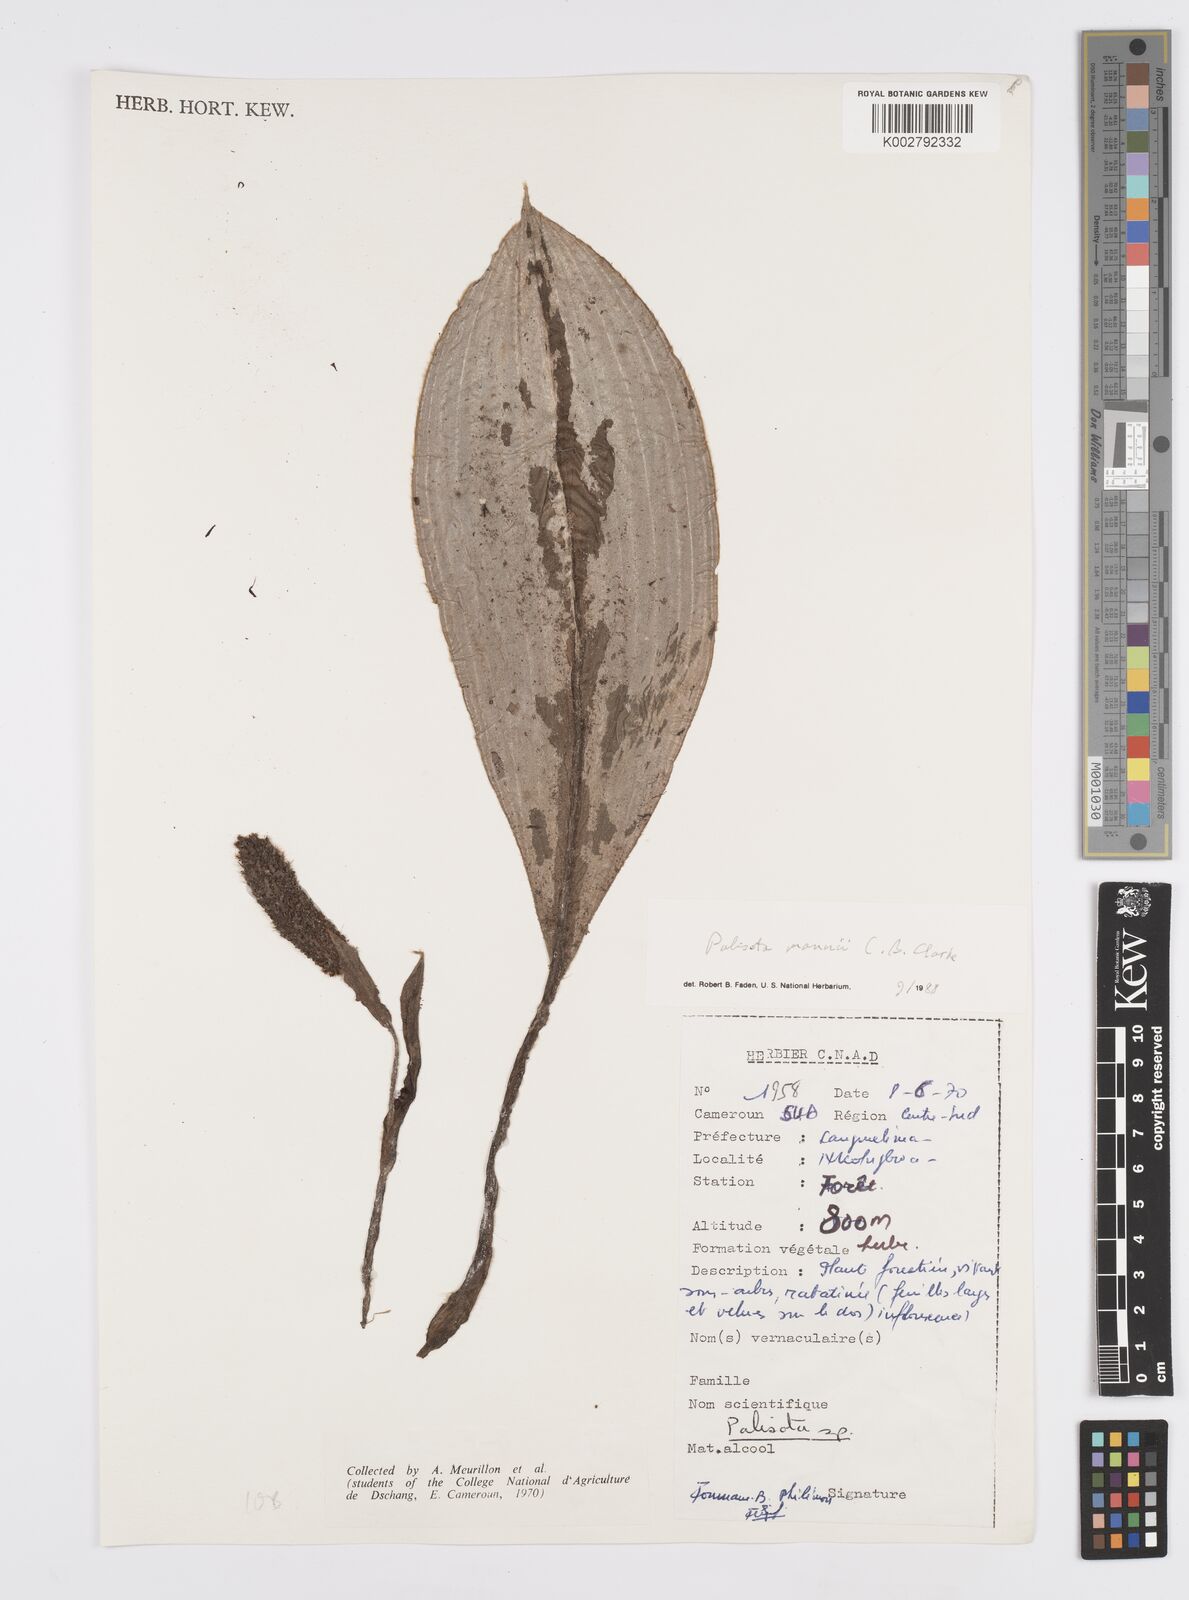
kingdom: Plantae
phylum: Tracheophyta
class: Liliopsida
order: Commelinales
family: Commelinaceae
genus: Palisota
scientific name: Palisota mannii
